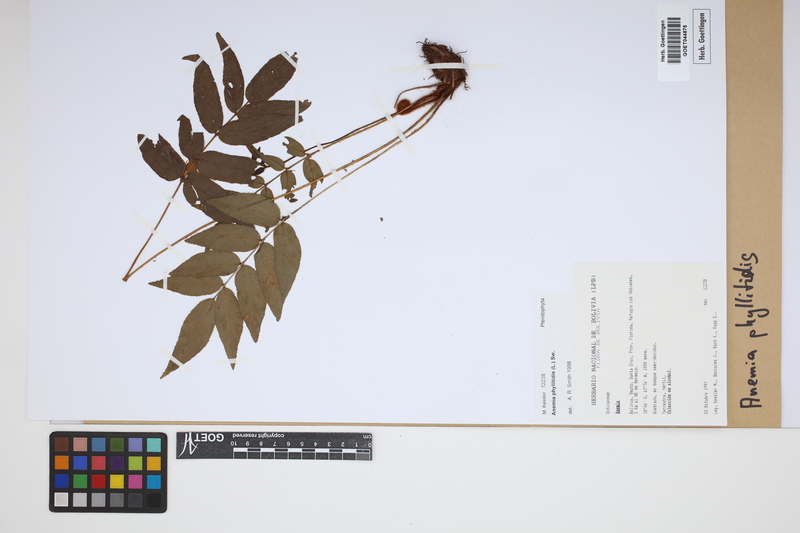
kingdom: Plantae
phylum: Tracheophyta
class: Polypodiopsida
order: Schizaeales
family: Anemiaceae
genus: Anemia
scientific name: Anemia phyllitidis
